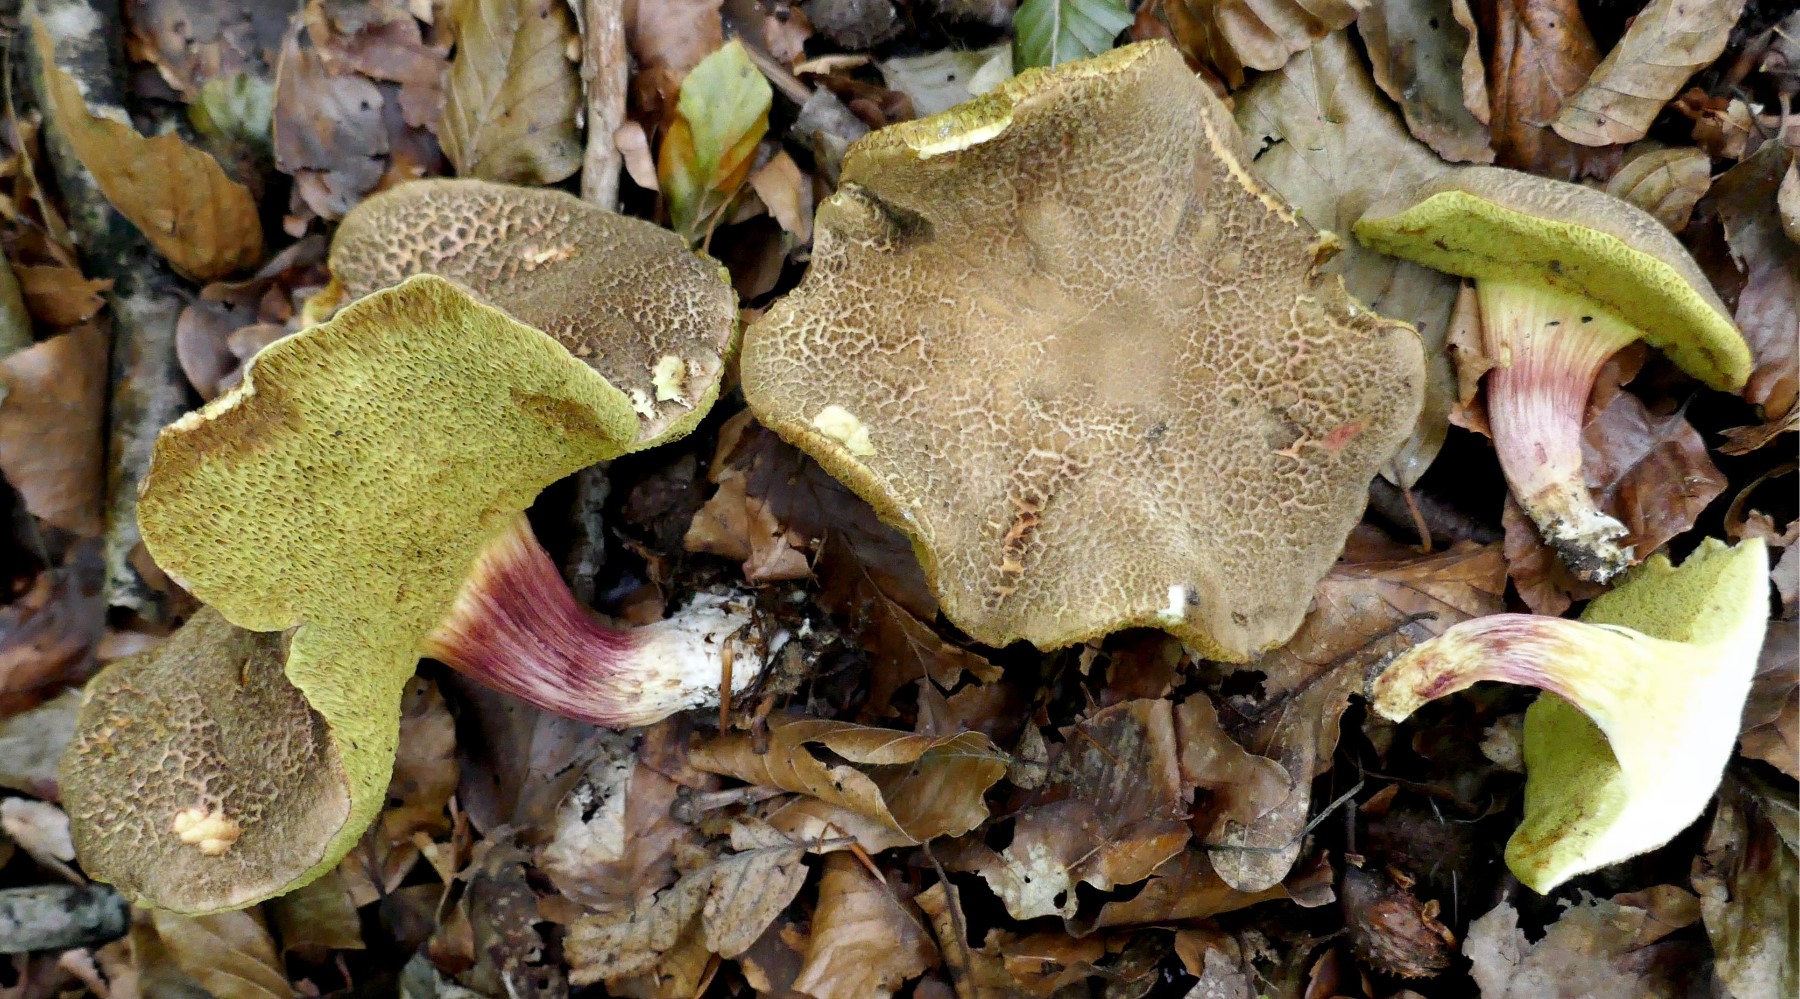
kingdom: Fungi
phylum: Basidiomycota
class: Agaricomycetes
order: Boletales
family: Boletaceae
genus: Xerocomellus
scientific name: Xerocomellus chrysenteron
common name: rødsprukken rørhat
